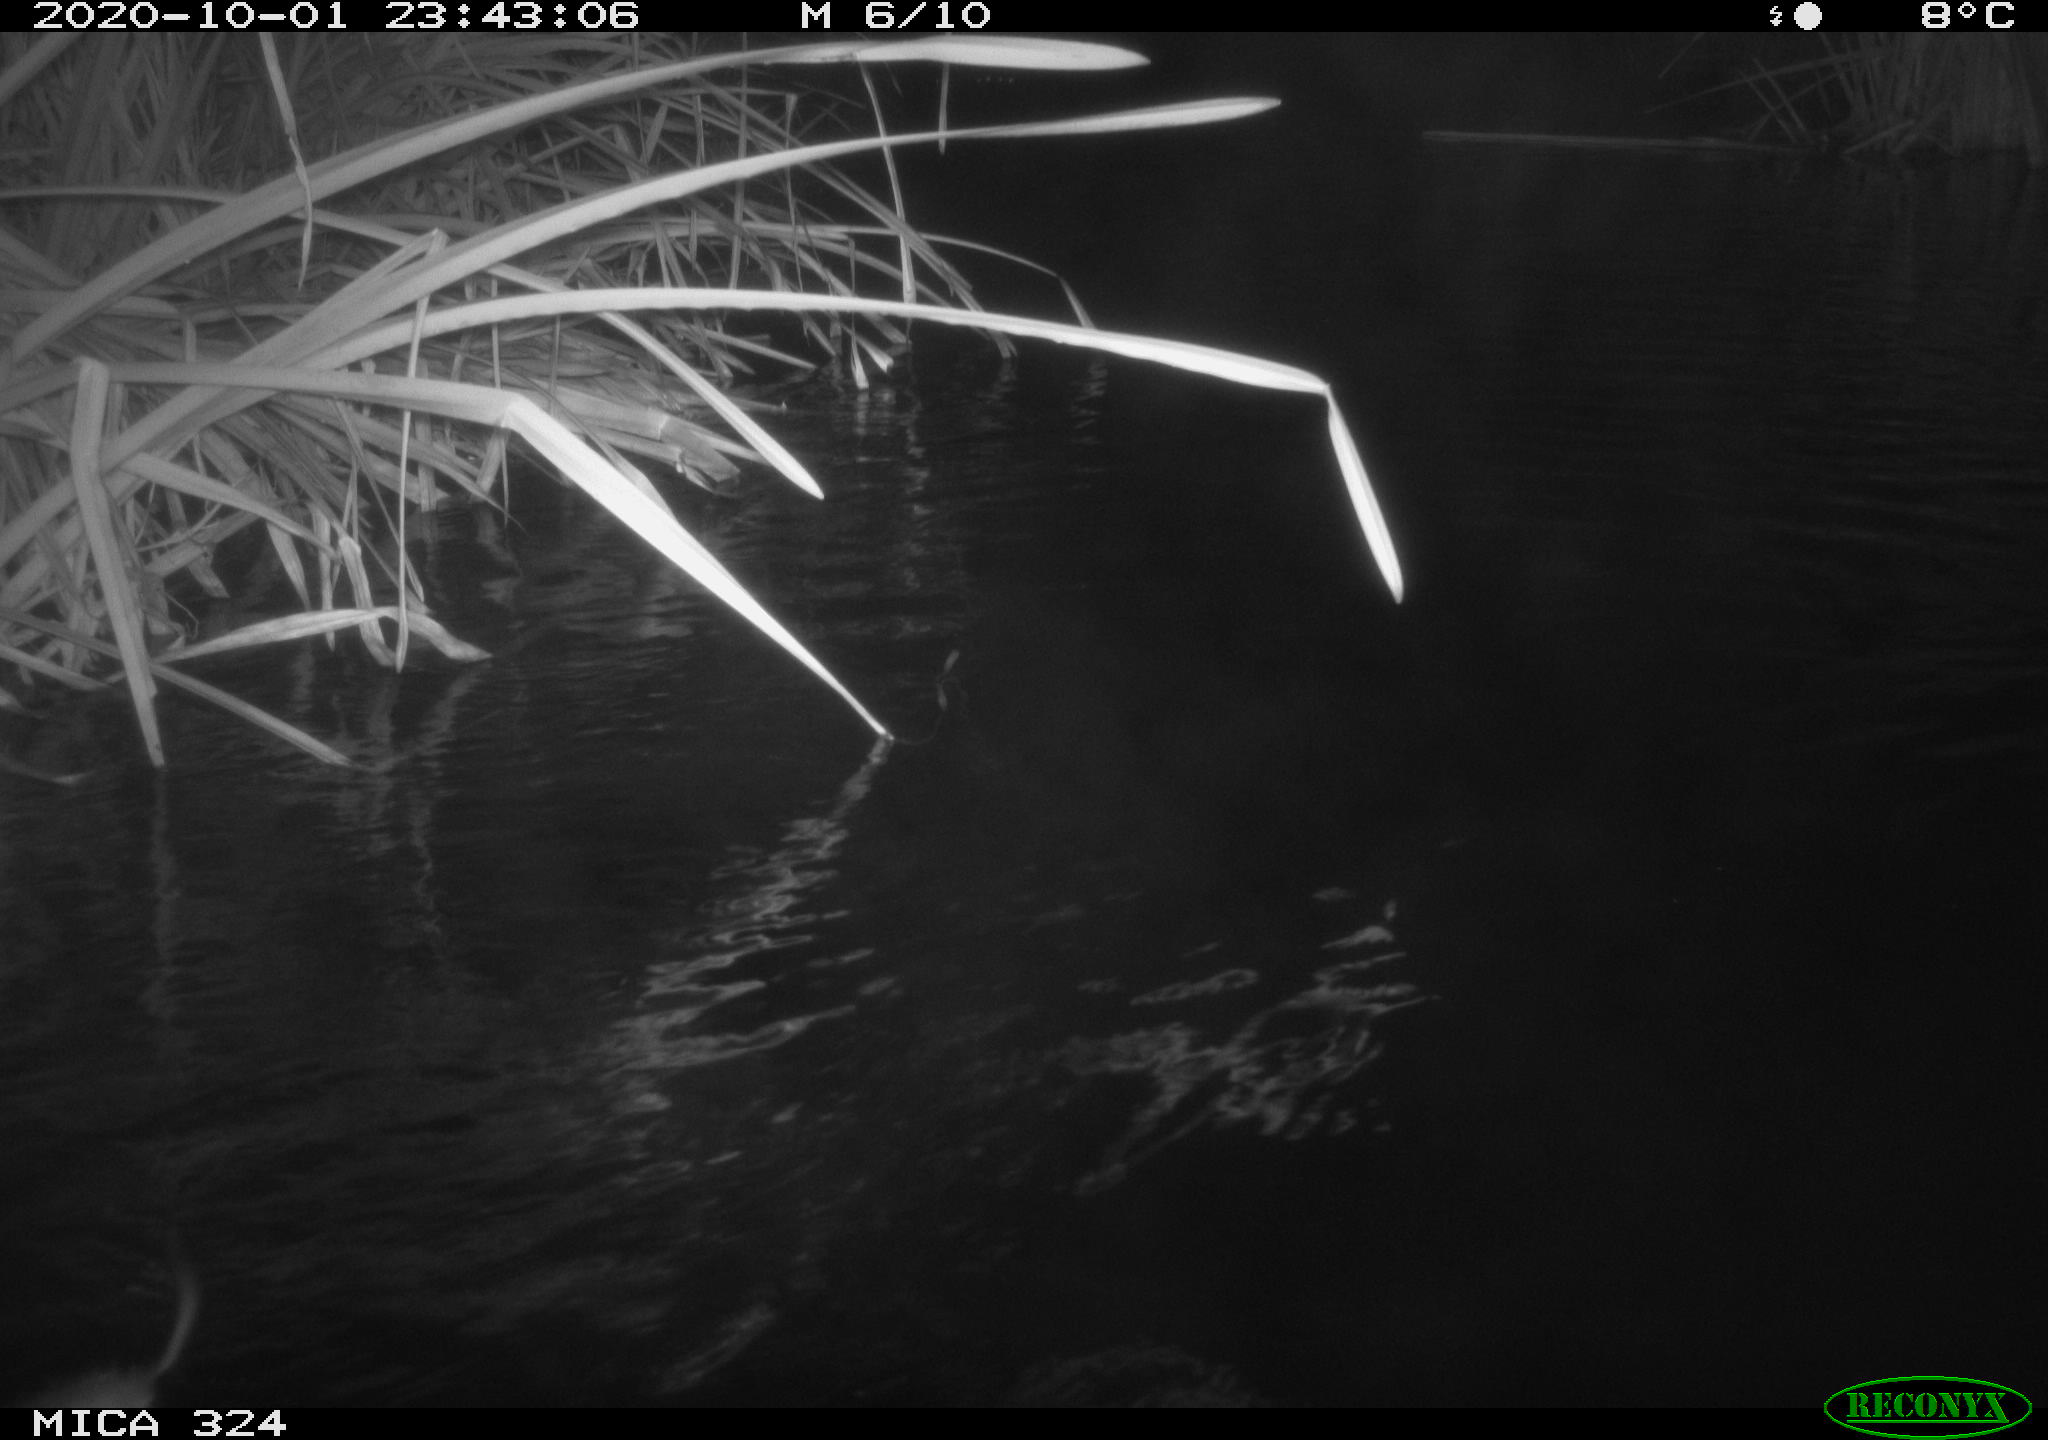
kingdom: Animalia
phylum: Chordata
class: Mammalia
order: Rodentia
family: Muridae
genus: Rattus
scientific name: Rattus norvegicus
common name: Brown rat
